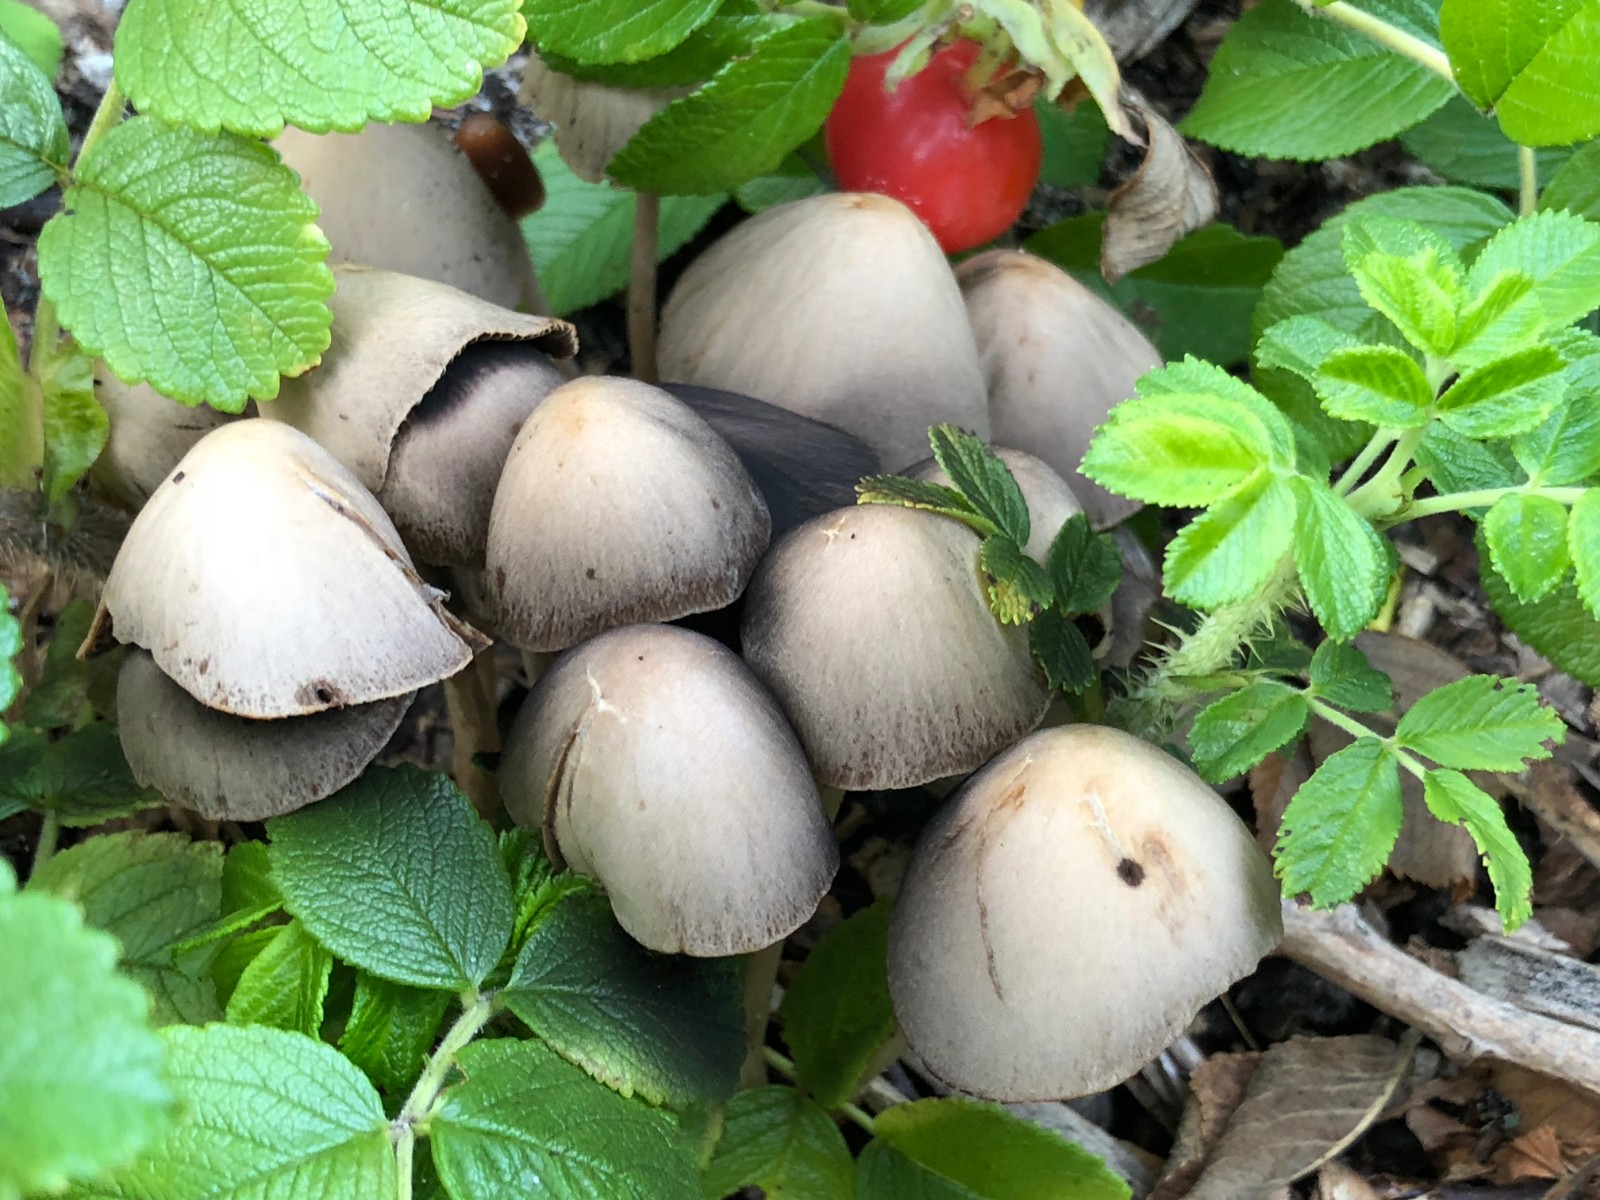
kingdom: Fungi
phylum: Basidiomycota
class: Agaricomycetes
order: Agaricales
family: Psathyrellaceae
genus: Parasola
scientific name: Parasola conopilea
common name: kegle-hjulhat
